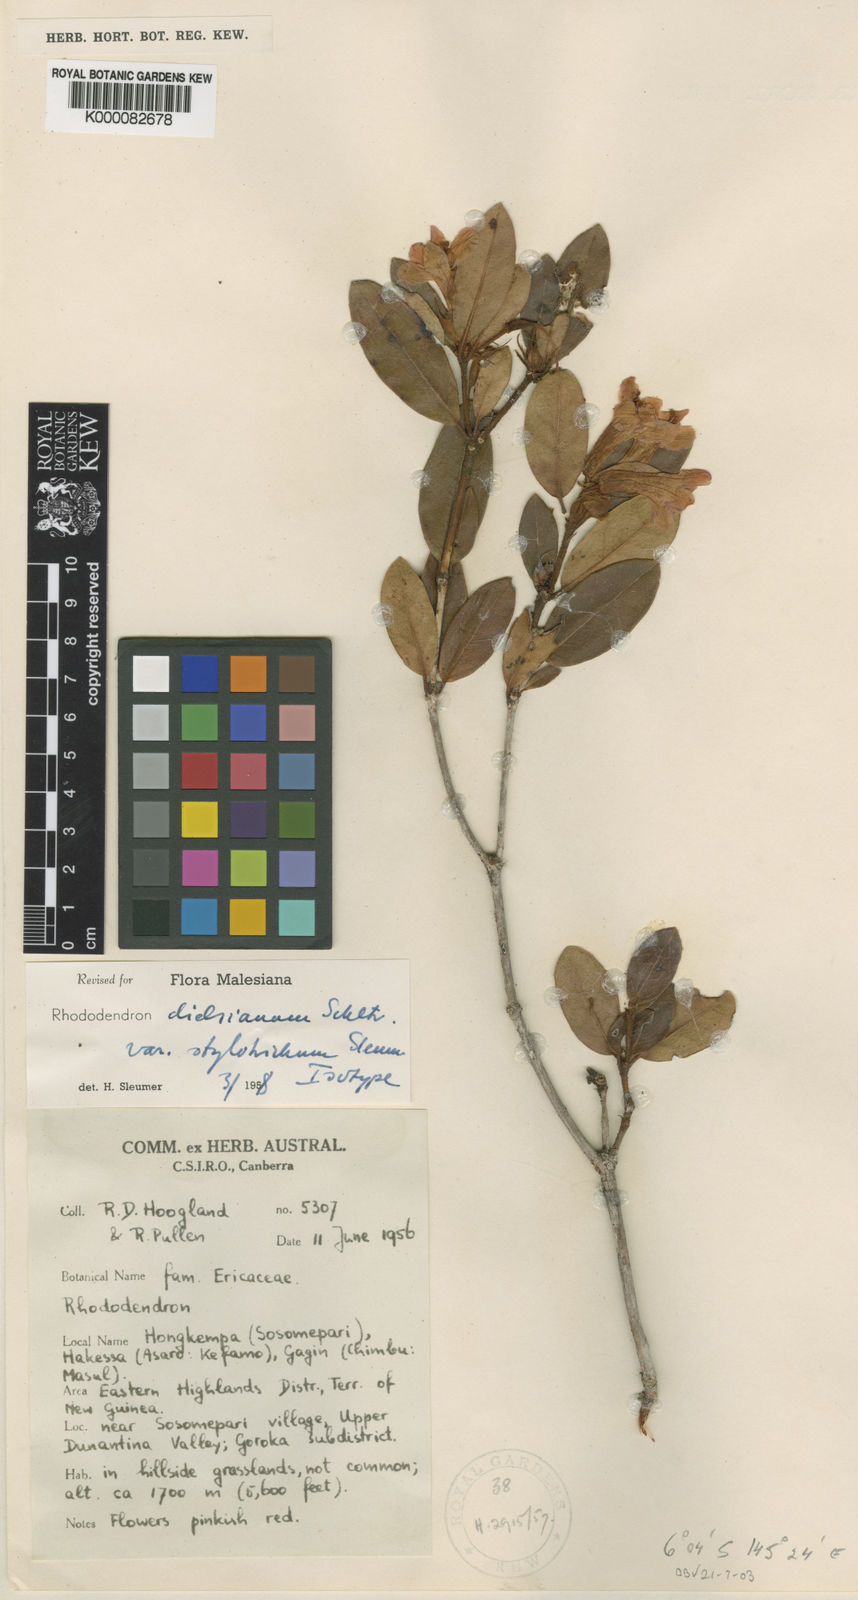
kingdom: Plantae
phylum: Tracheophyta
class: Magnoliopsida
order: Ericales
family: Ericaceae
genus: Rhododendron
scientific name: Rhododendron dielsianum
